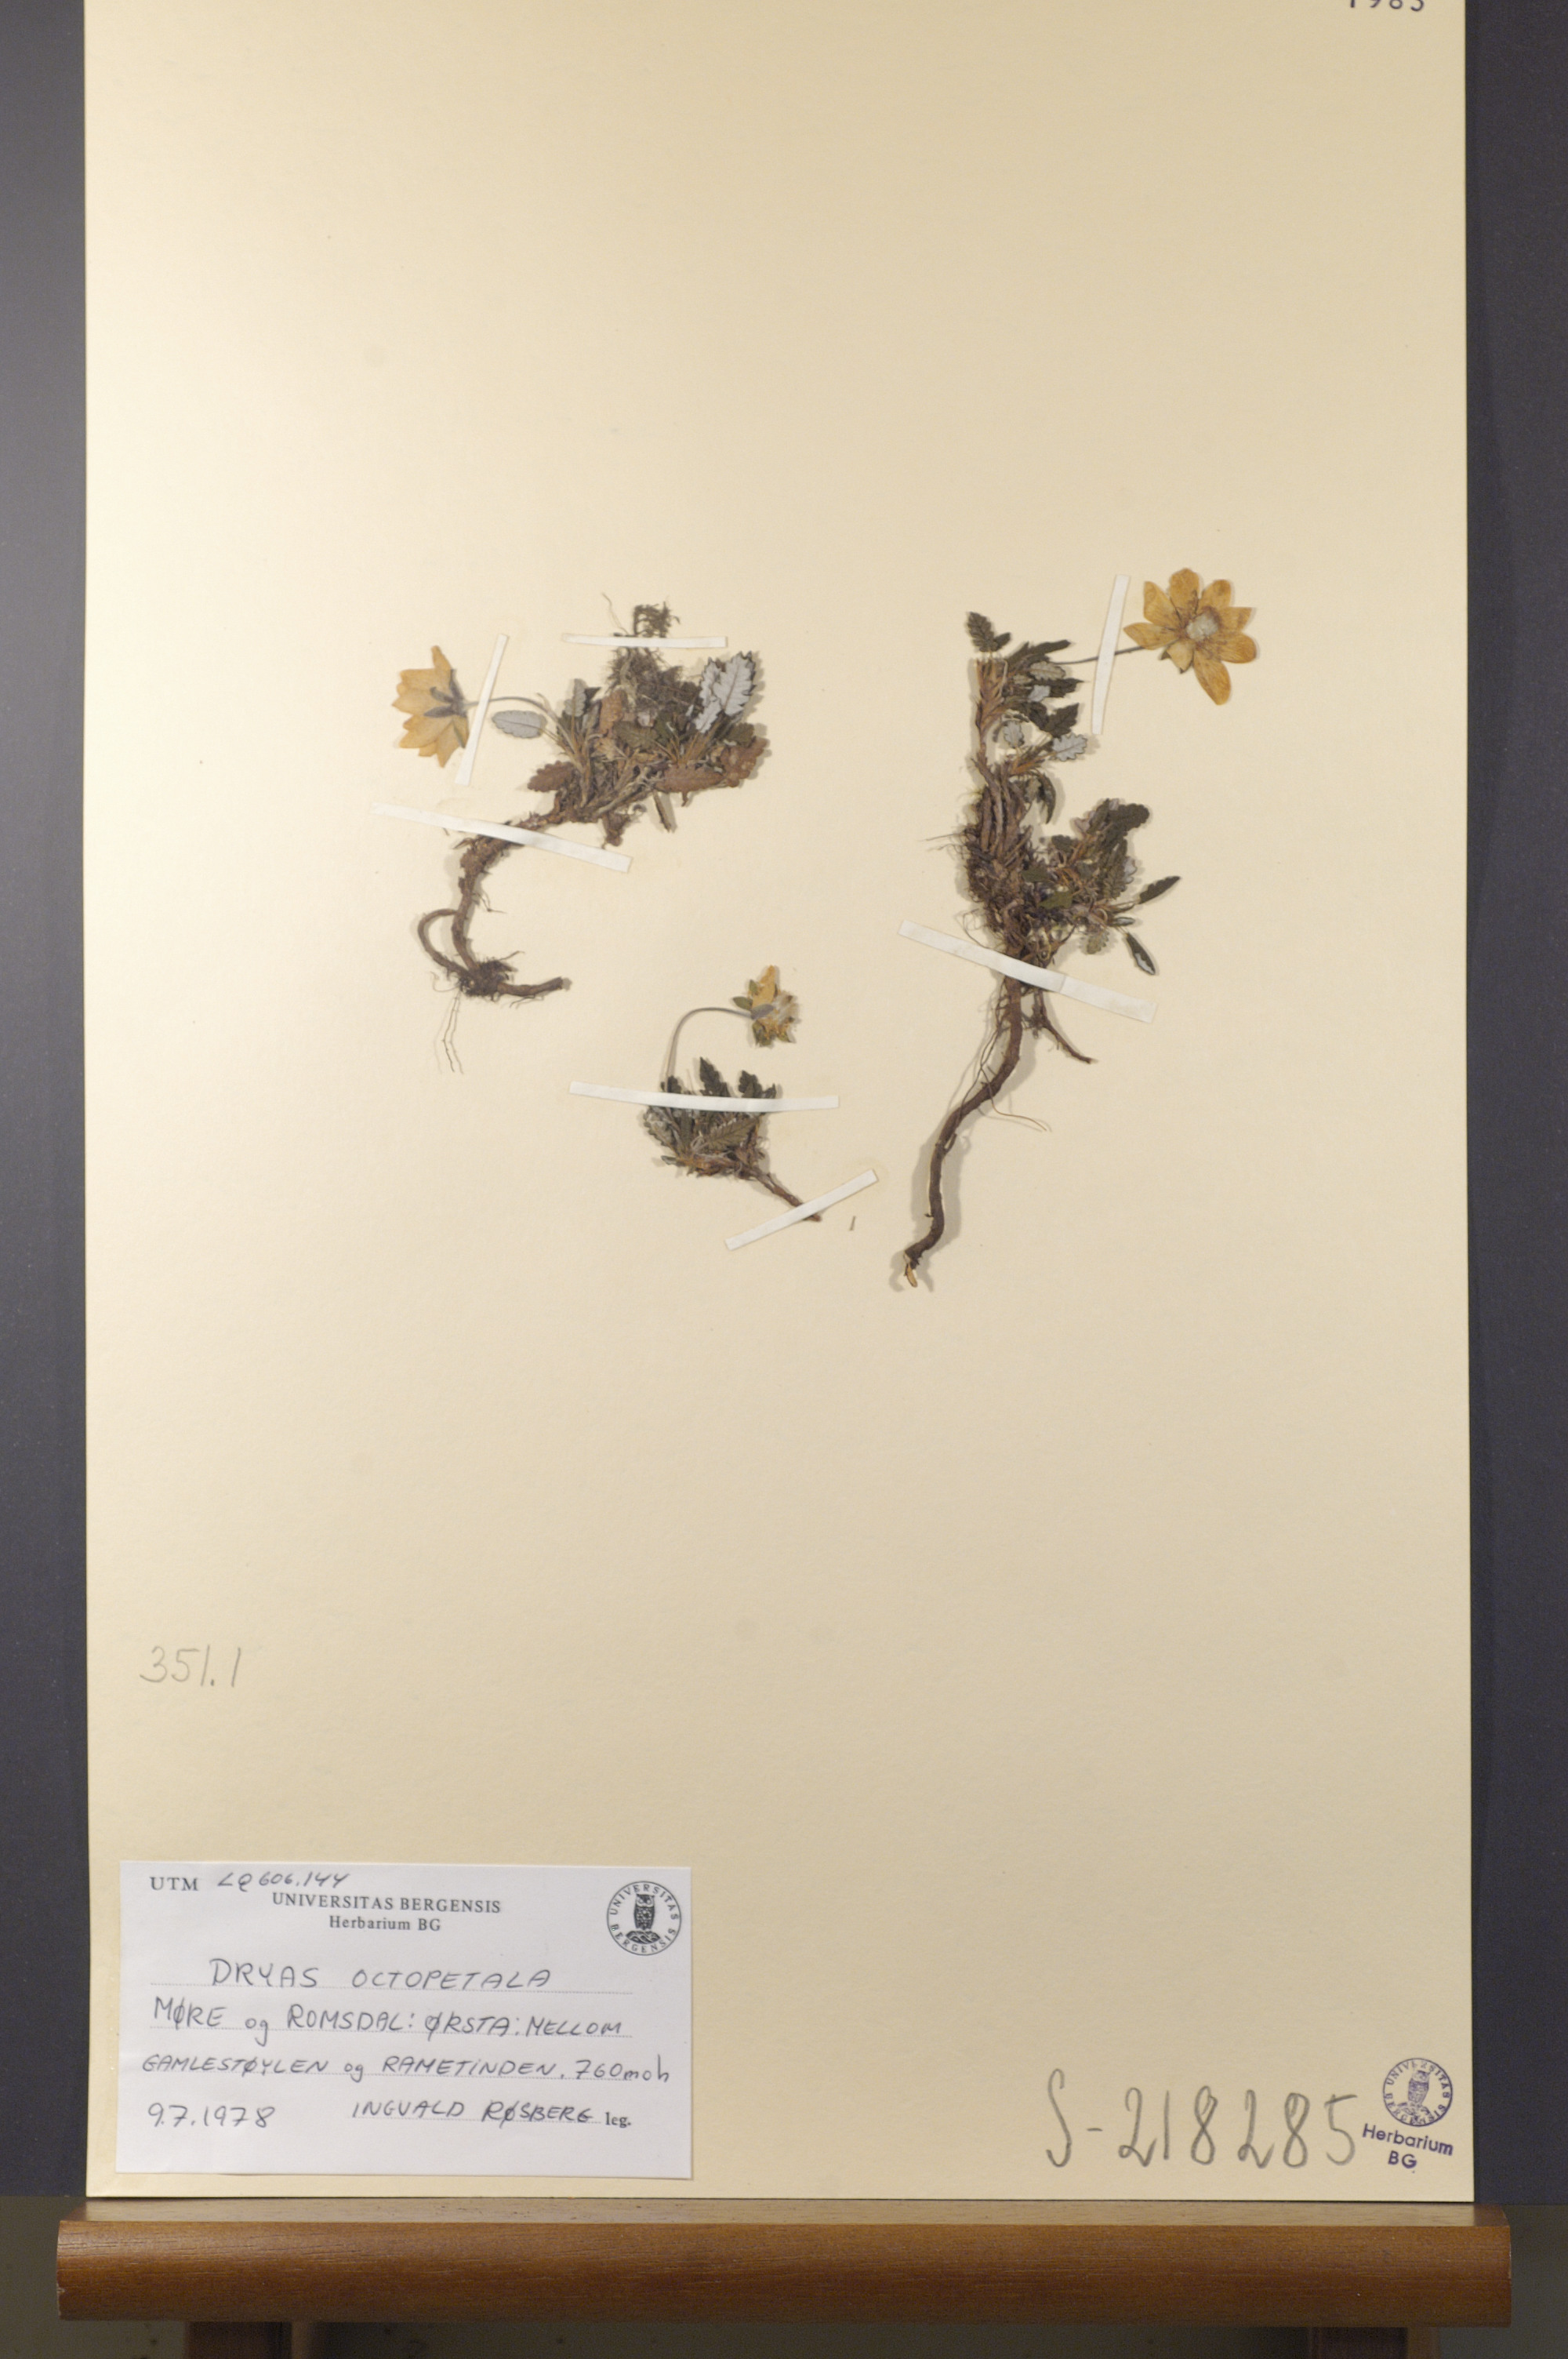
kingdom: Plantae
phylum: Tracheophyta
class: Magnoliopsida
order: Rosales
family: Rosaceae
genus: Dryas
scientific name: Dryas octopetala
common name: Eight-petal mountain-avens
